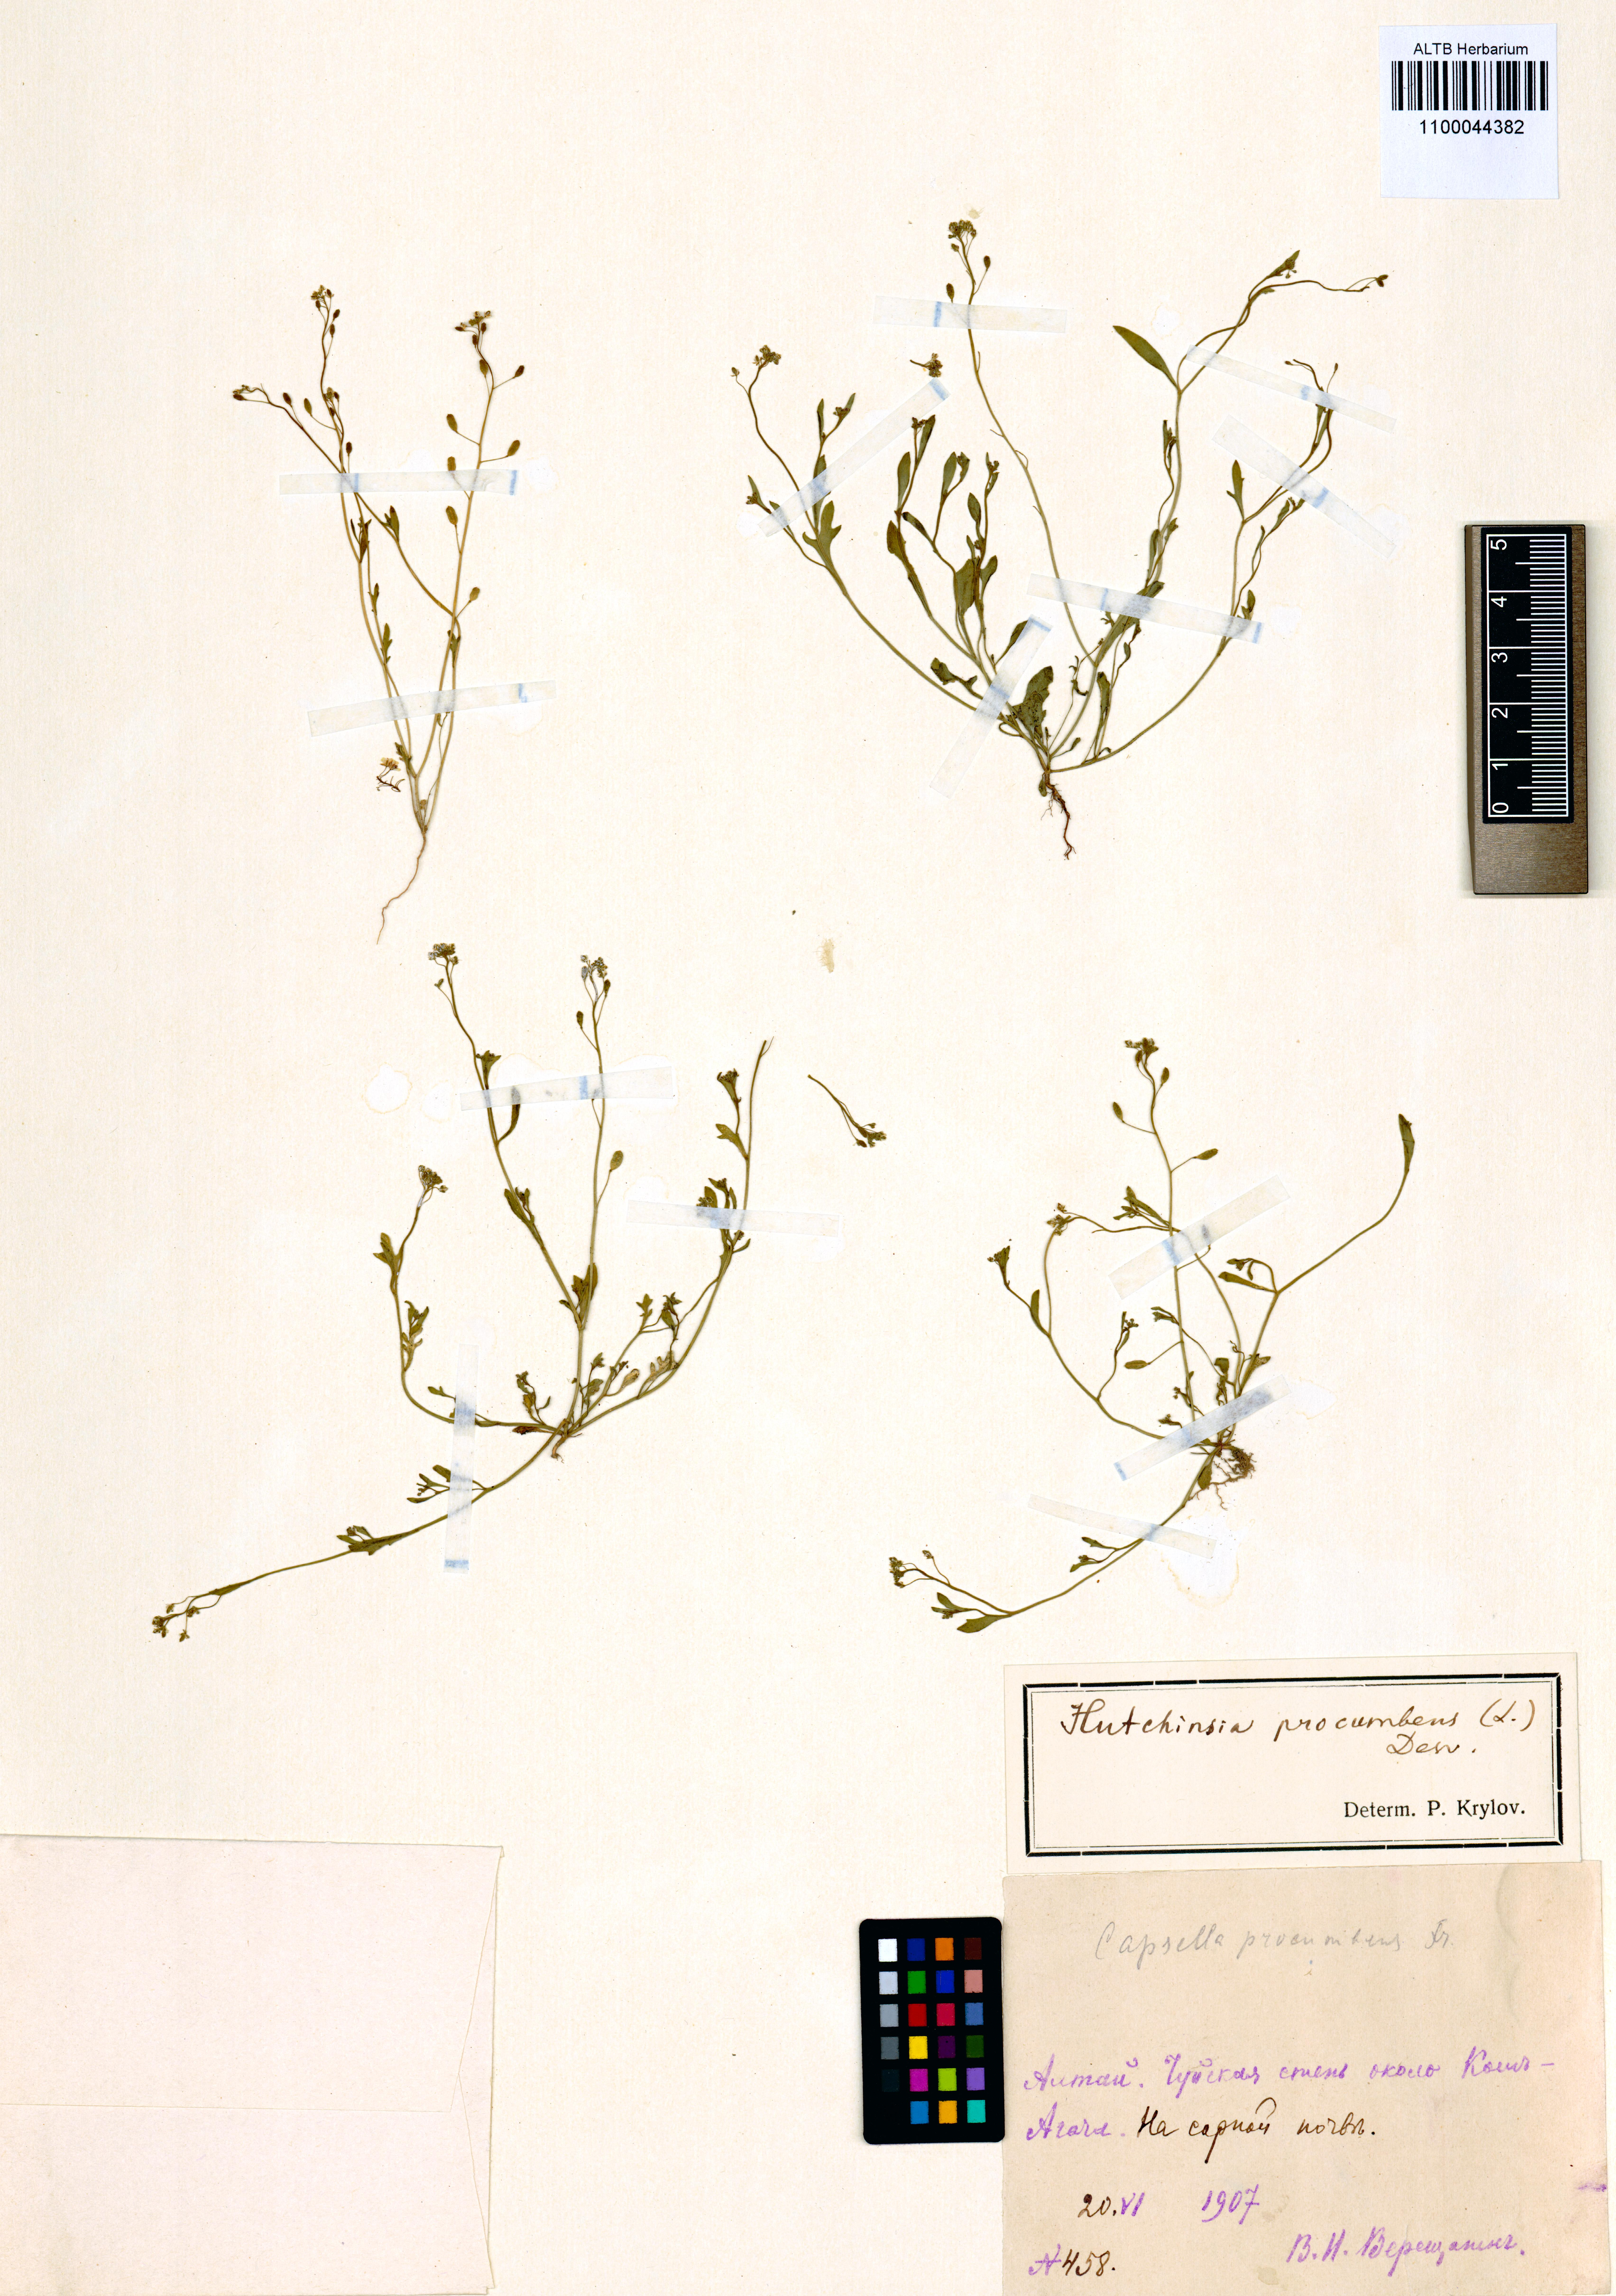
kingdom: Plantae
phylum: Tracheophyta
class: Magnoliopsida
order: Brassicales
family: Brassicaceae
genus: Hornungia
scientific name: Hornungia procumbens
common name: Oval purse
